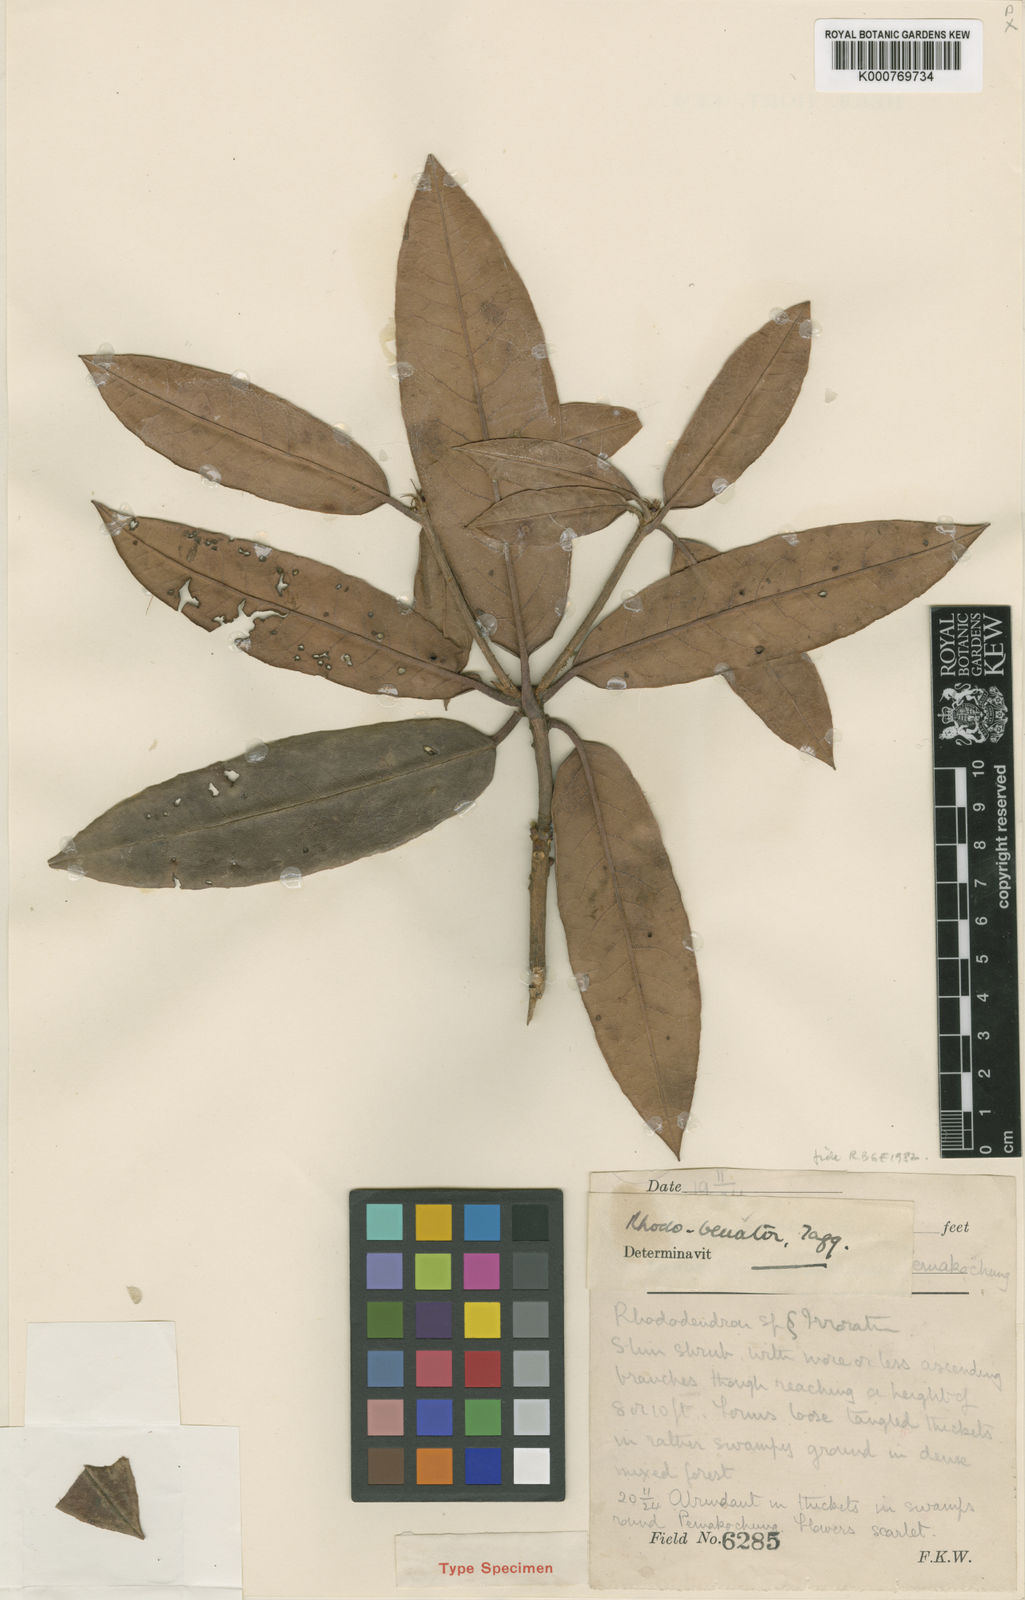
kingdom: Plantae
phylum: Tracheophyta
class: Magnoliopsida
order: Ericales
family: Ericaceae
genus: Rhododendron
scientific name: Rhododendron
